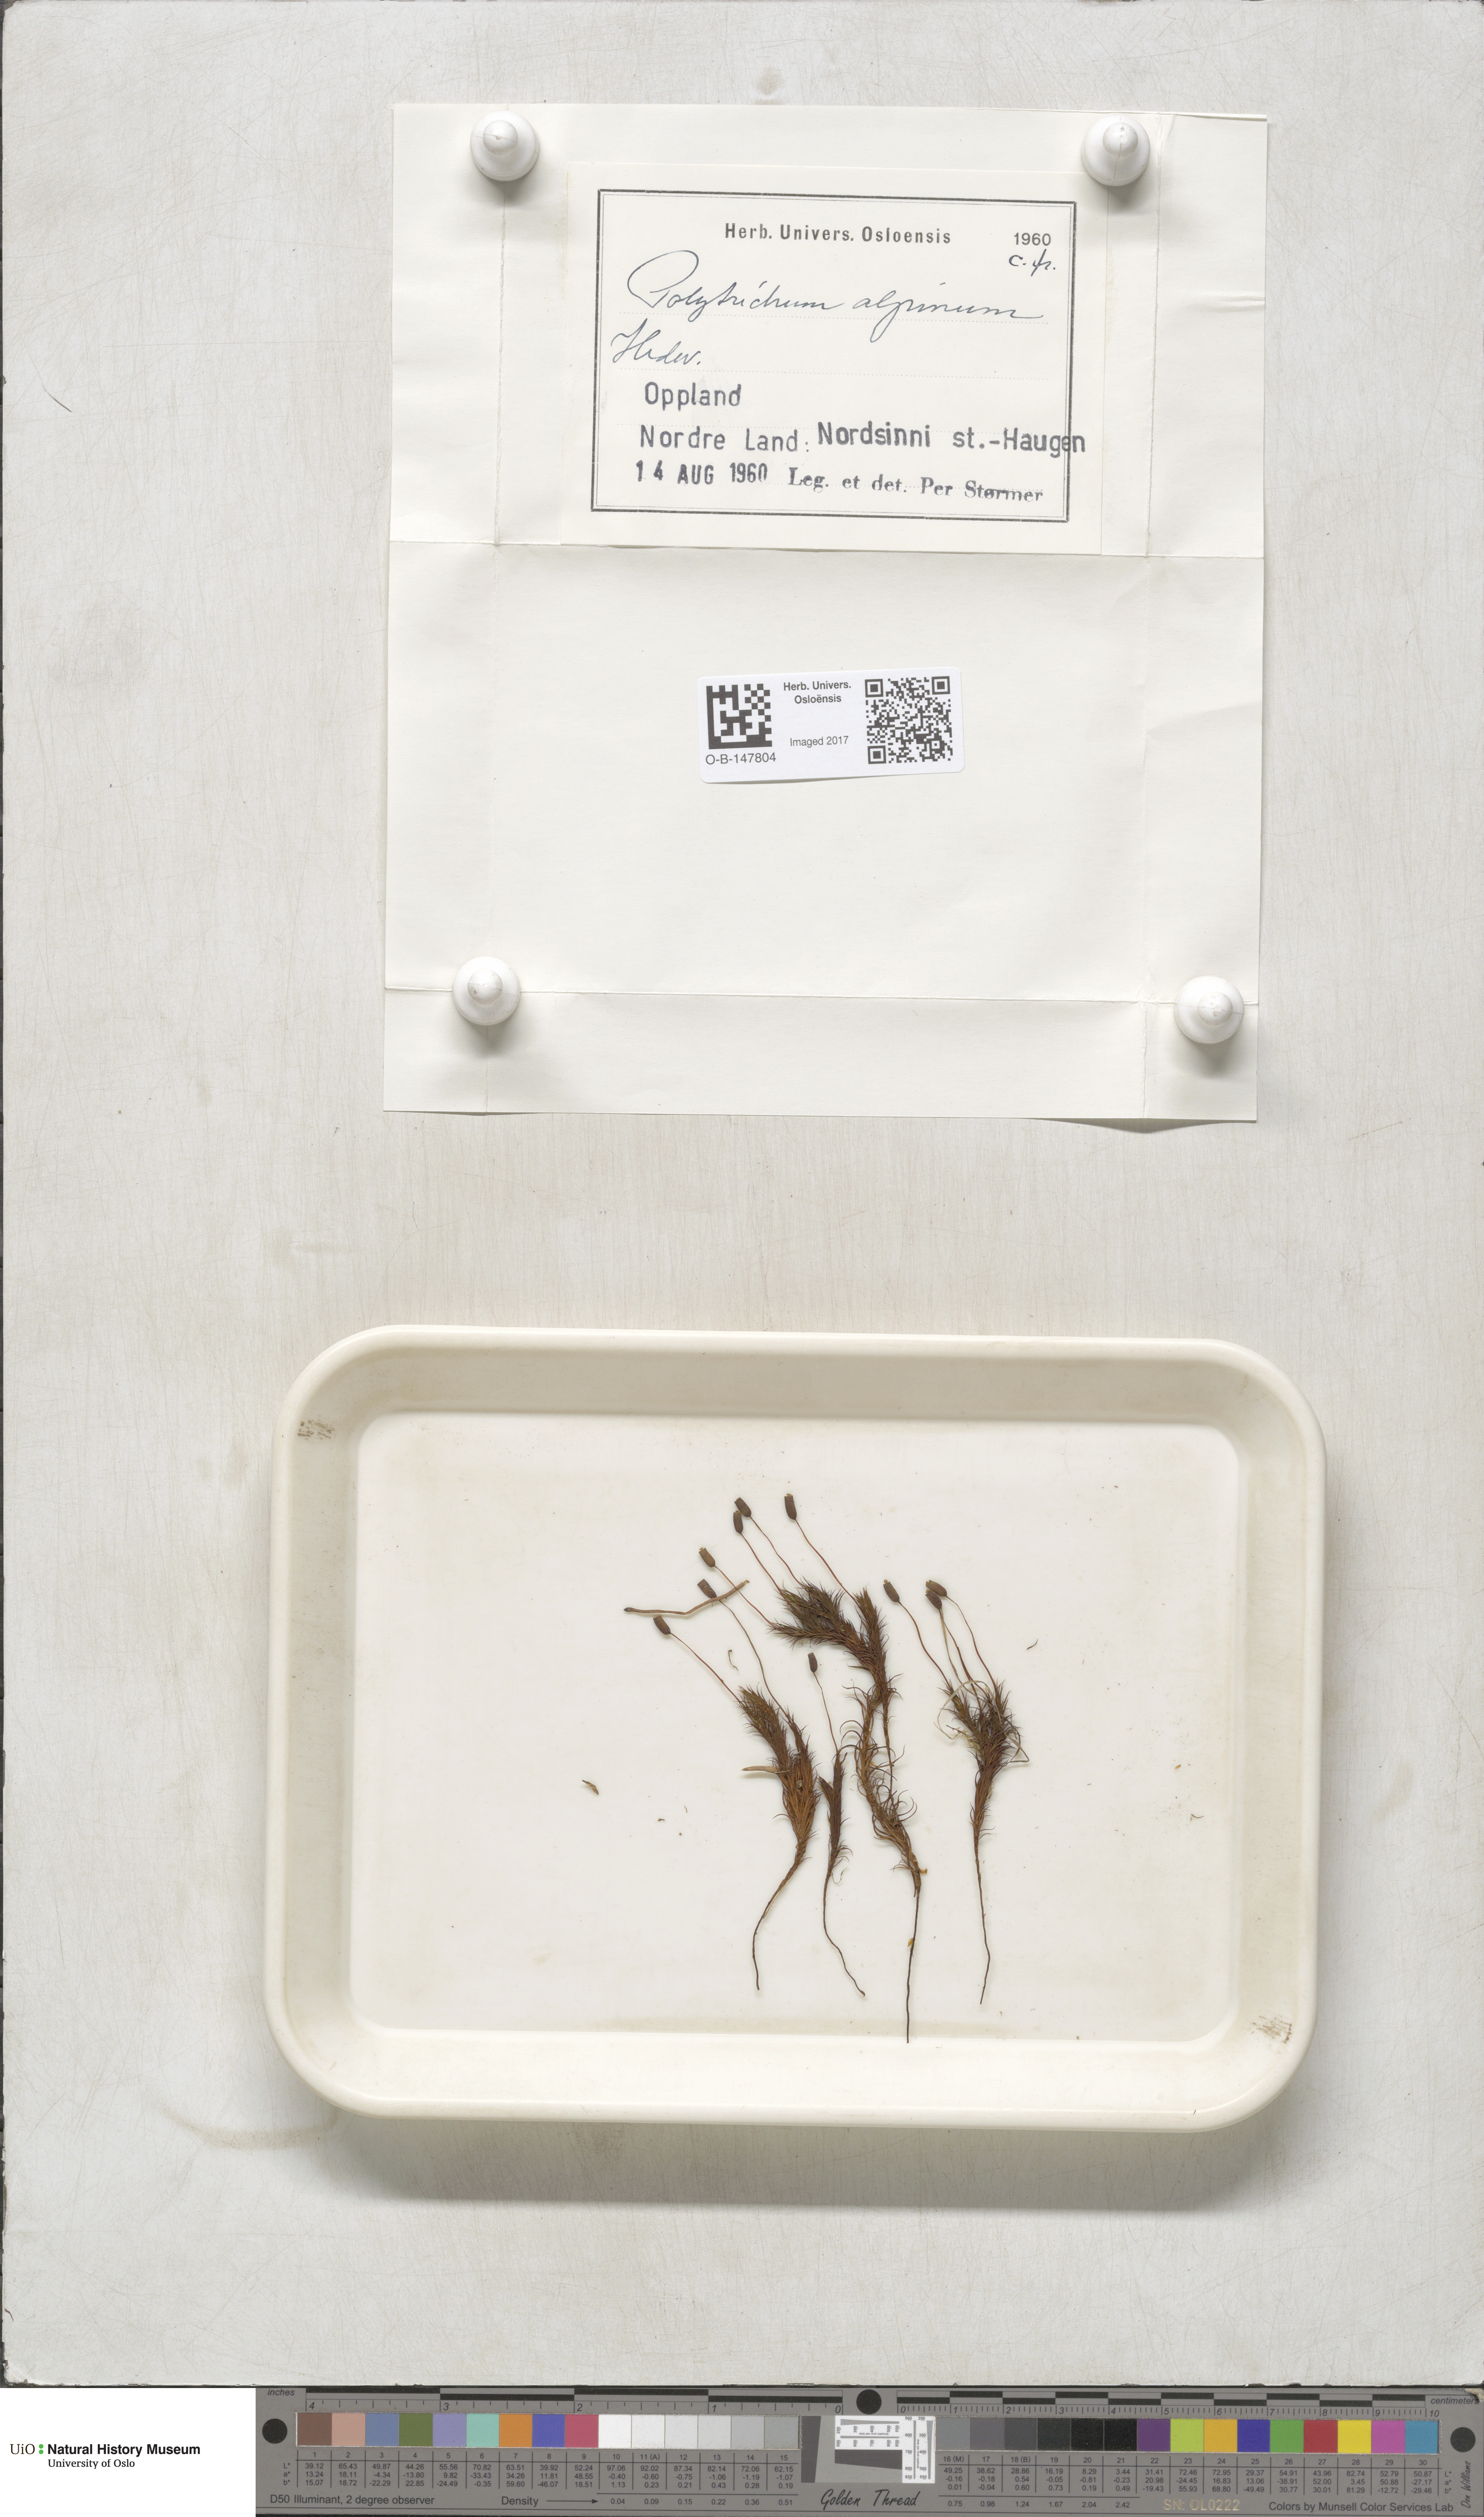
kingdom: Plantae
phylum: Bryophyta
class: Polytrichopsida
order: Polytrichales
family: Polytrichaceae
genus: Polytrichastrum
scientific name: Polytrichastrum alpinum
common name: Alpine haircap
